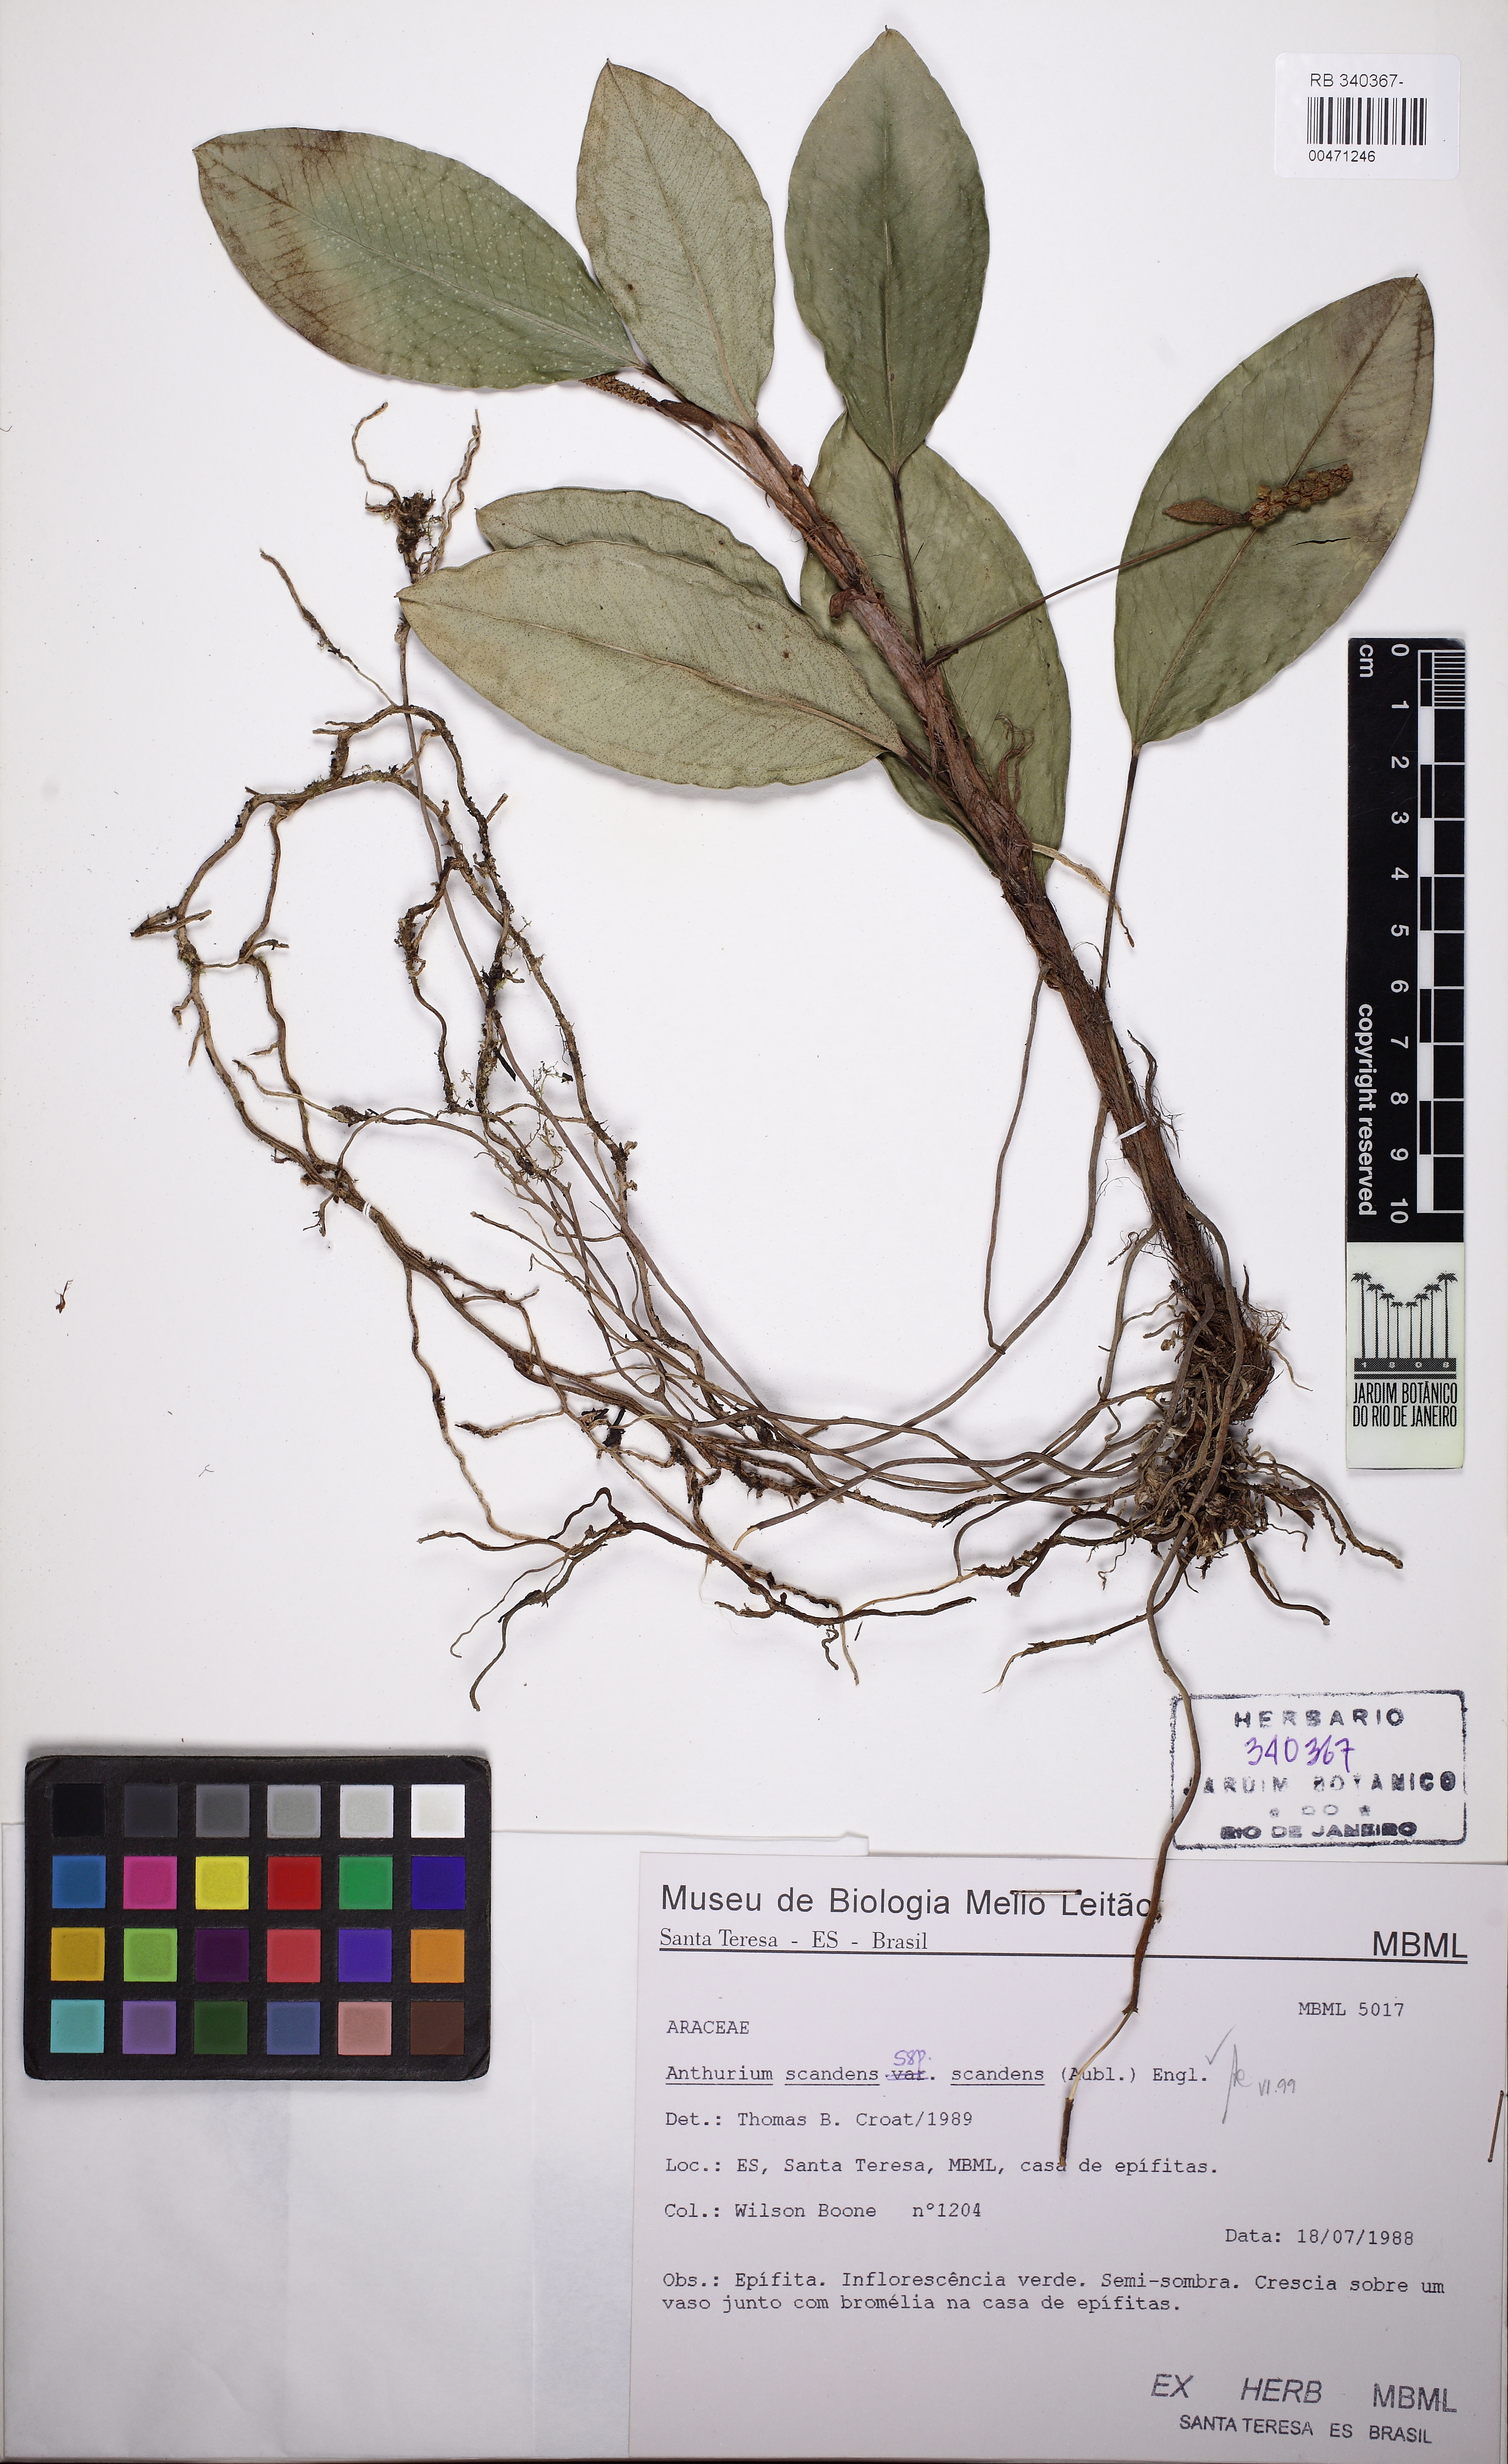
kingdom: Plantae
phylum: Tracheophyta
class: Liliopsida
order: Alismatales
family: Araceae
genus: Anthurium
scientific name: Anthurium scandens
